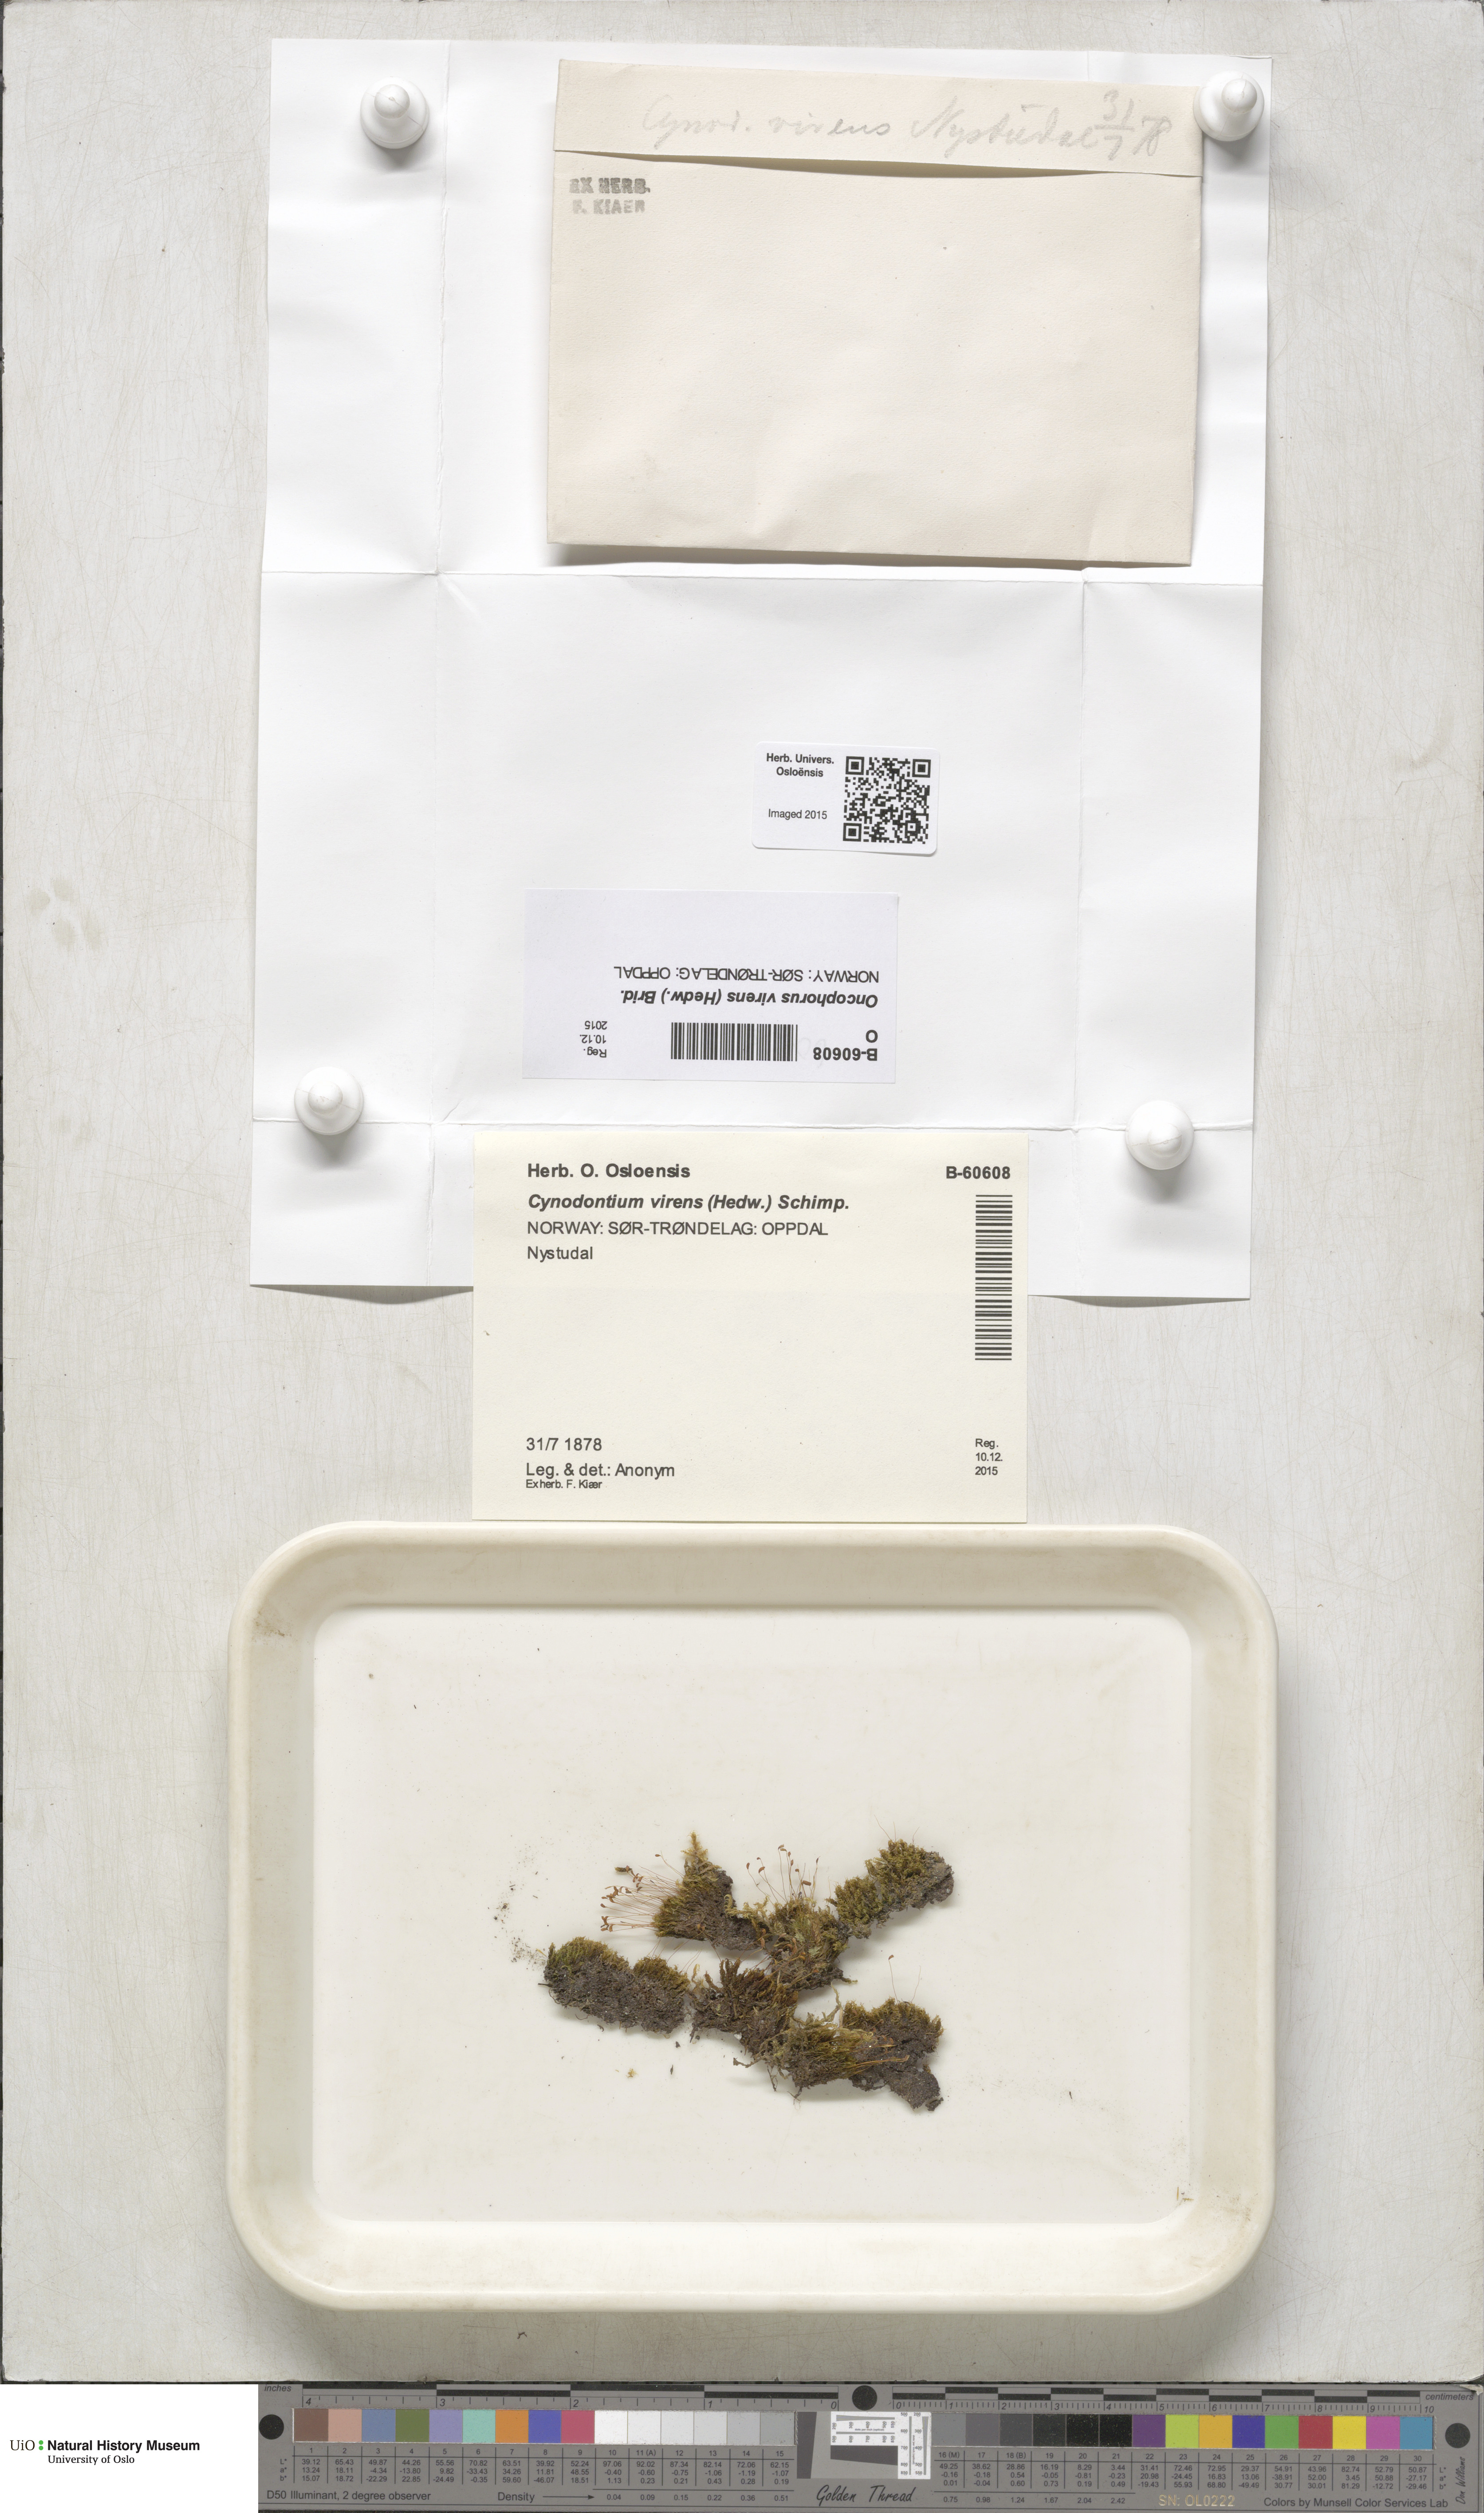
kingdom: Plantae
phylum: Bryophyta
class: Bryopsida
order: Dicranales
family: Rhabdoweisiaceae
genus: Oncophorus
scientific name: Oncophorus virens
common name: Green spur moss
